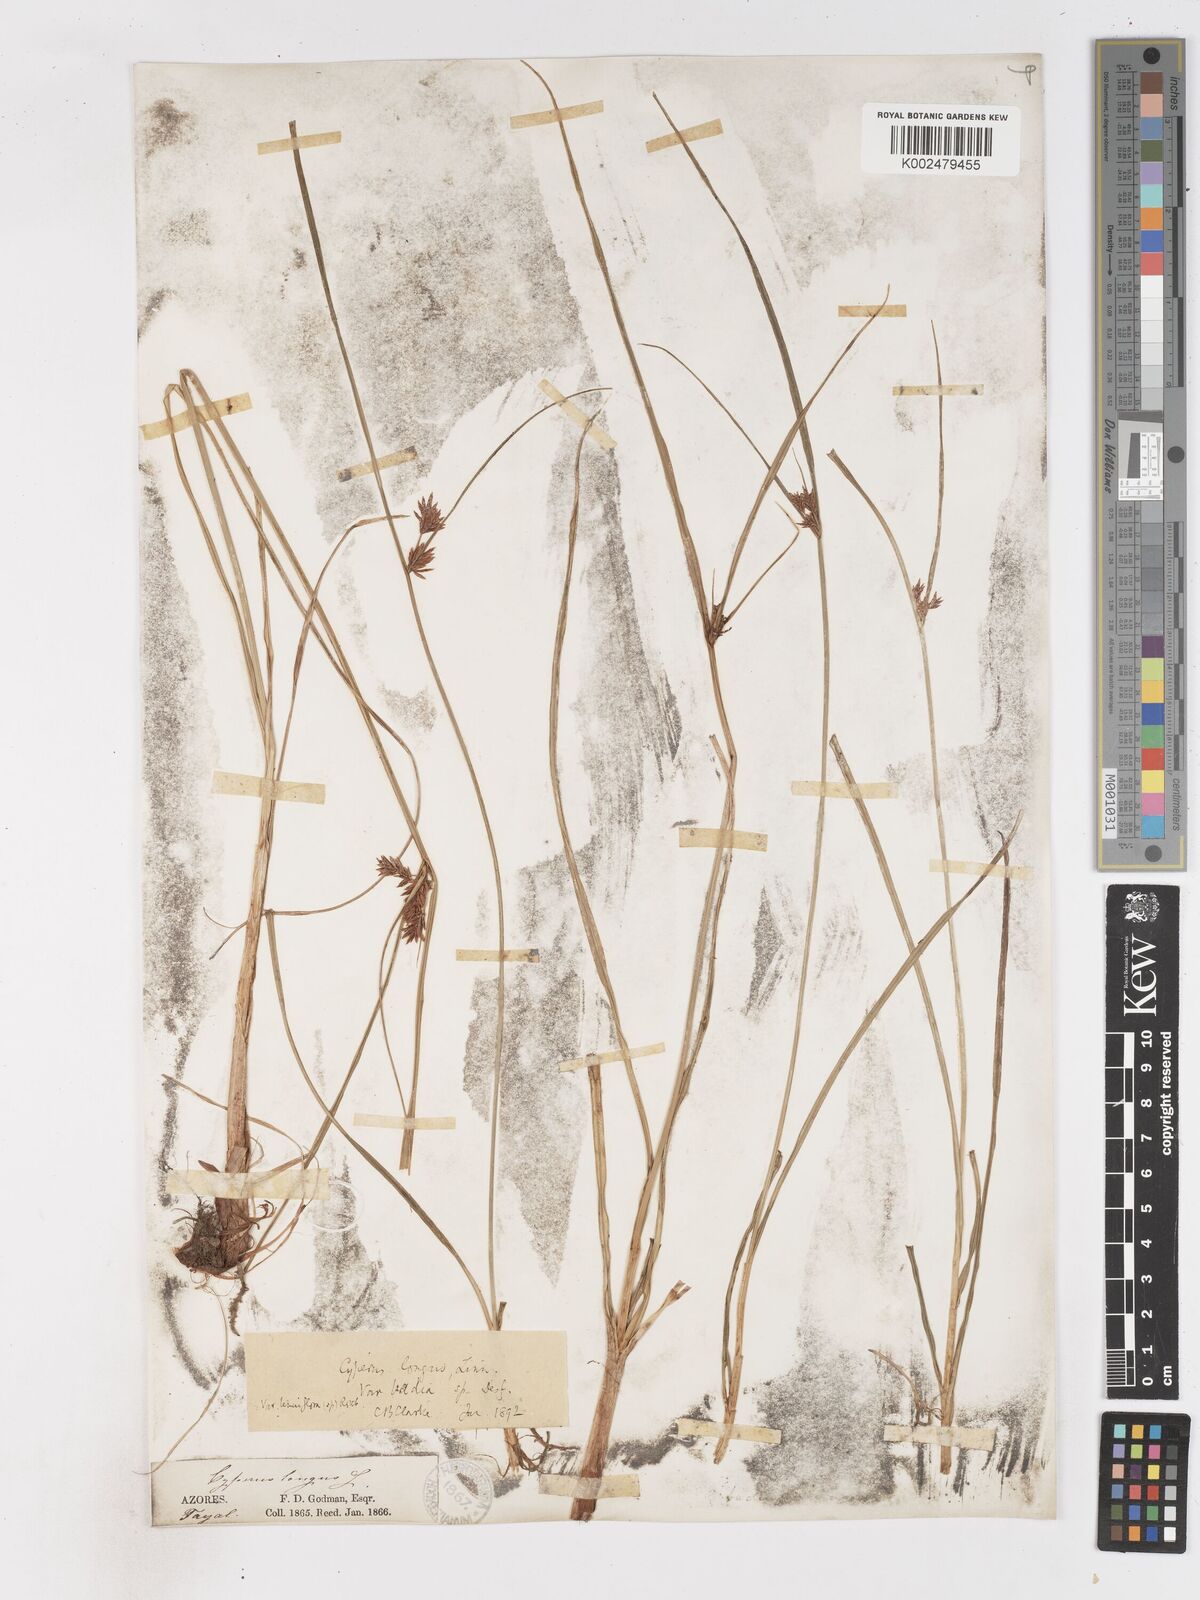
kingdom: Plantae
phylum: Tracheophyta
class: Liliopsida
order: Poales
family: Cyperaceae
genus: Cyperus
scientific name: Cyperus longus
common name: Galingale
